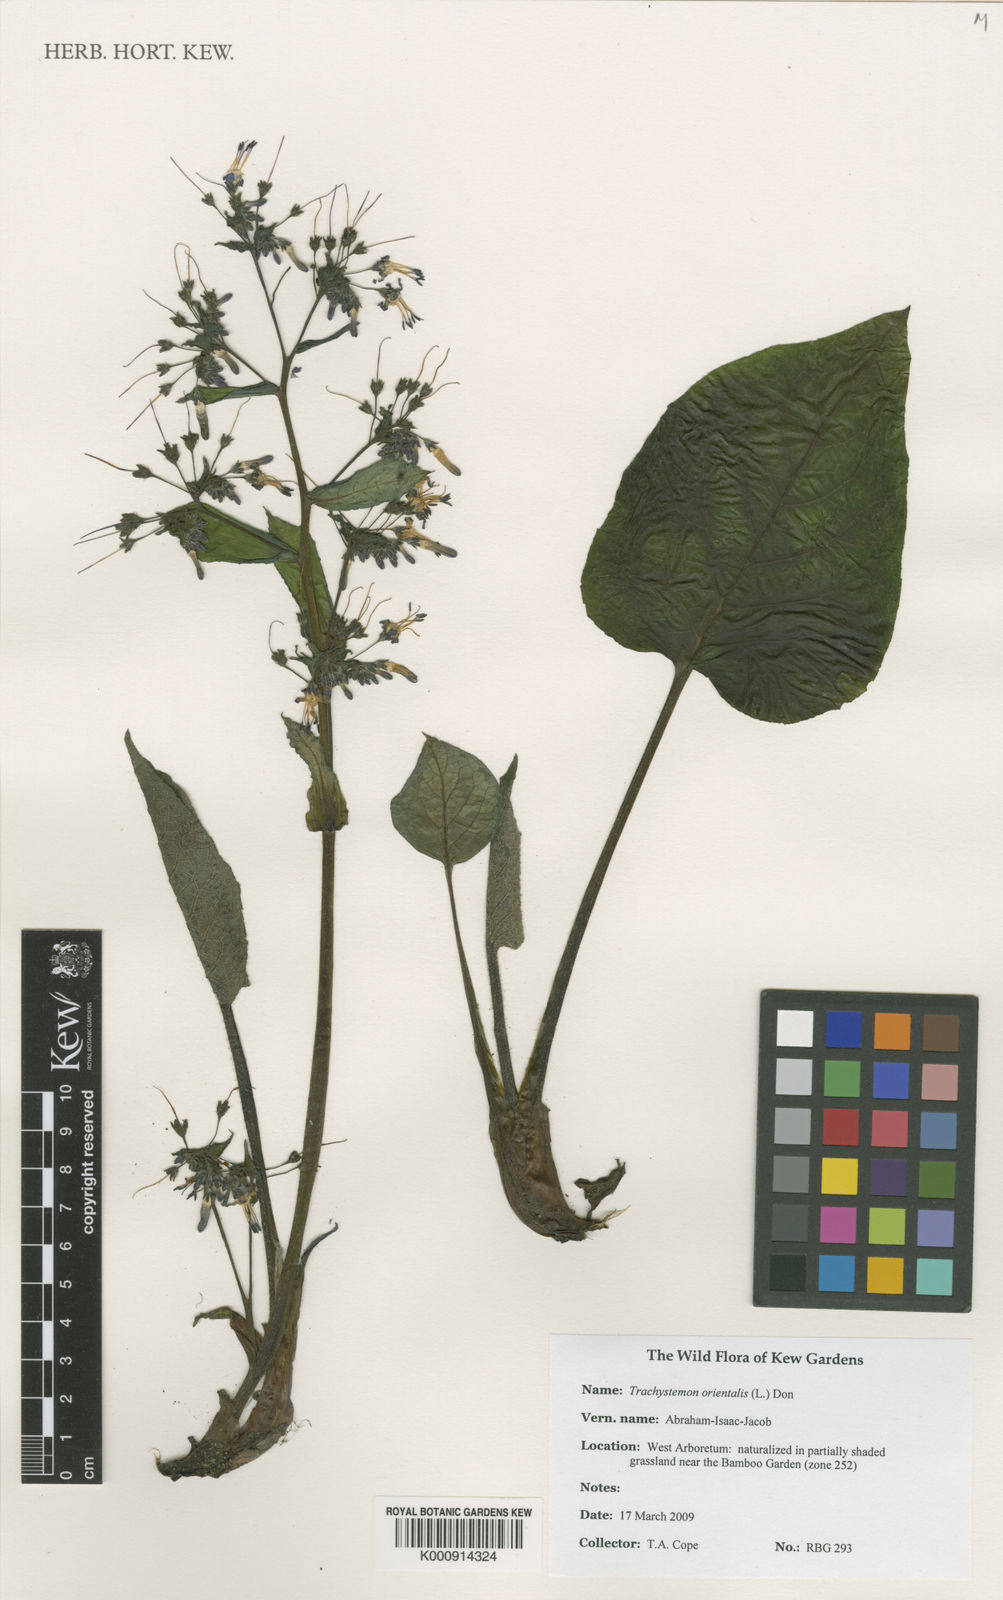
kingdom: Plantae
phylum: Tracheophyta
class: Magnoliopsida
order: Boraginales
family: Boraginaceae
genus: Trachystemon
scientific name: Trachystemon orientale
